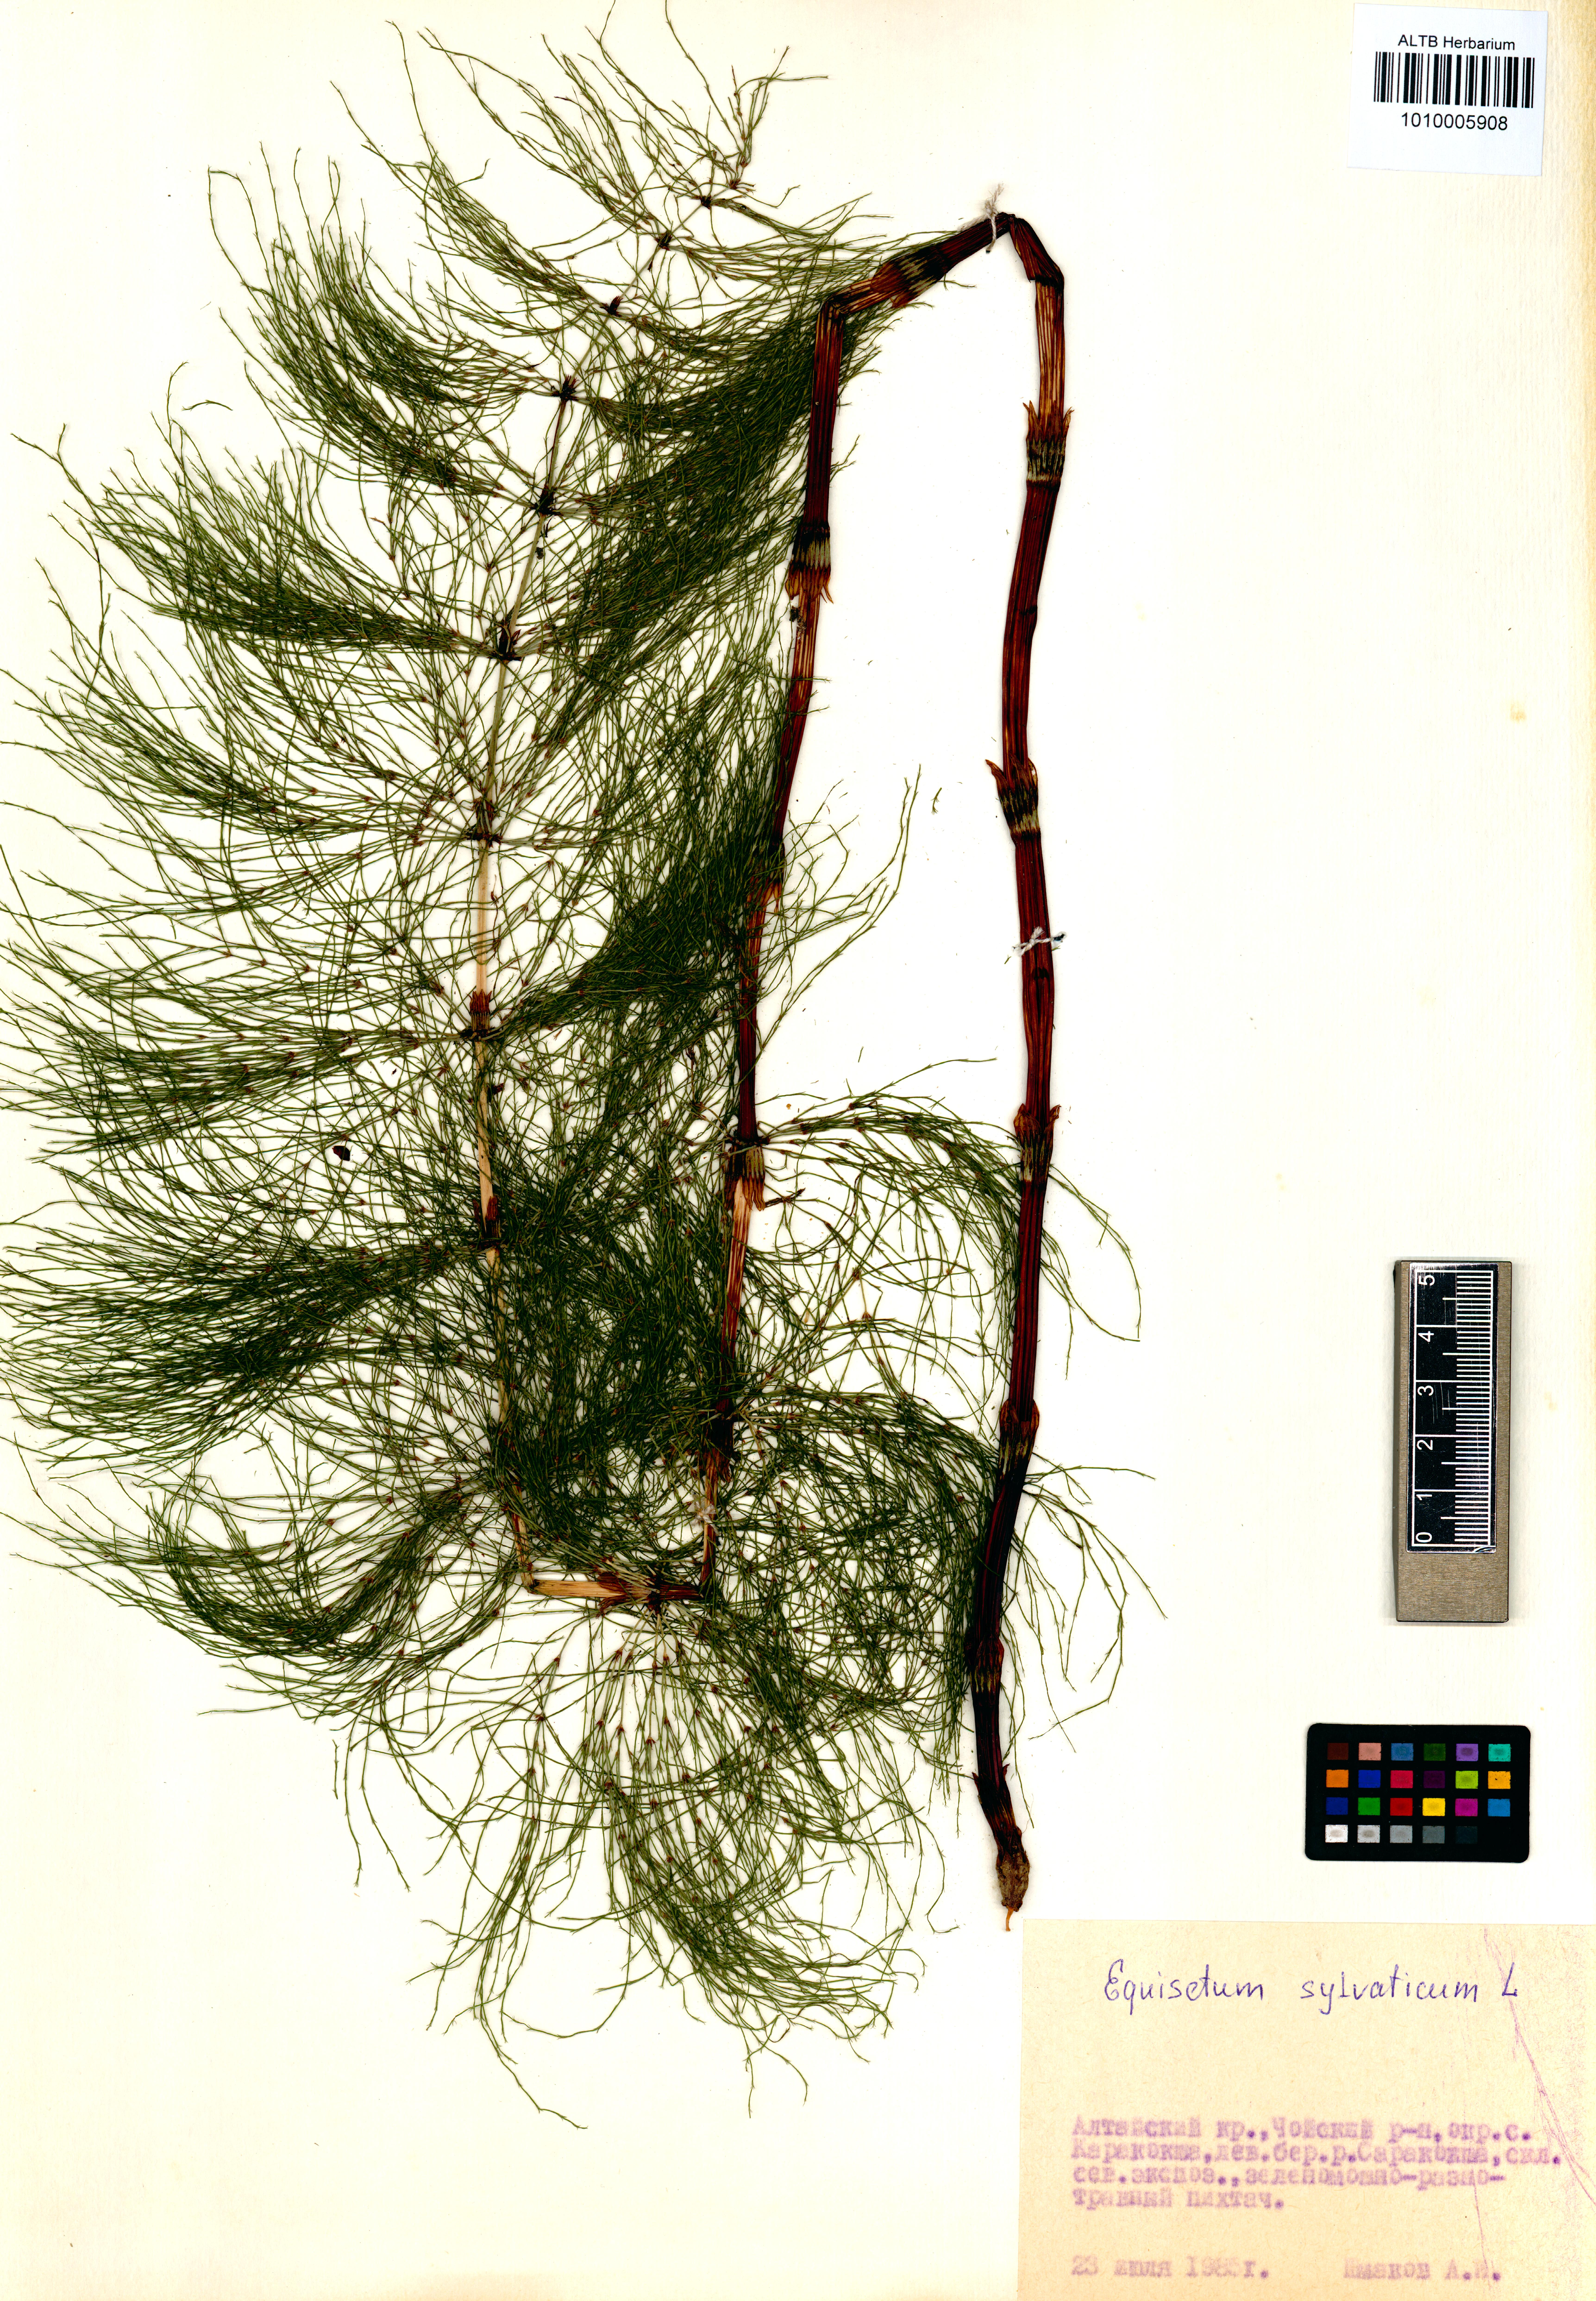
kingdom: Plantae
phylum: Tracheophyta
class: Polypodiopsida
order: Equisetales
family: Equisetaceae
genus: Equisetum
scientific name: Equisetum sylvaticum
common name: Wood horsetail
